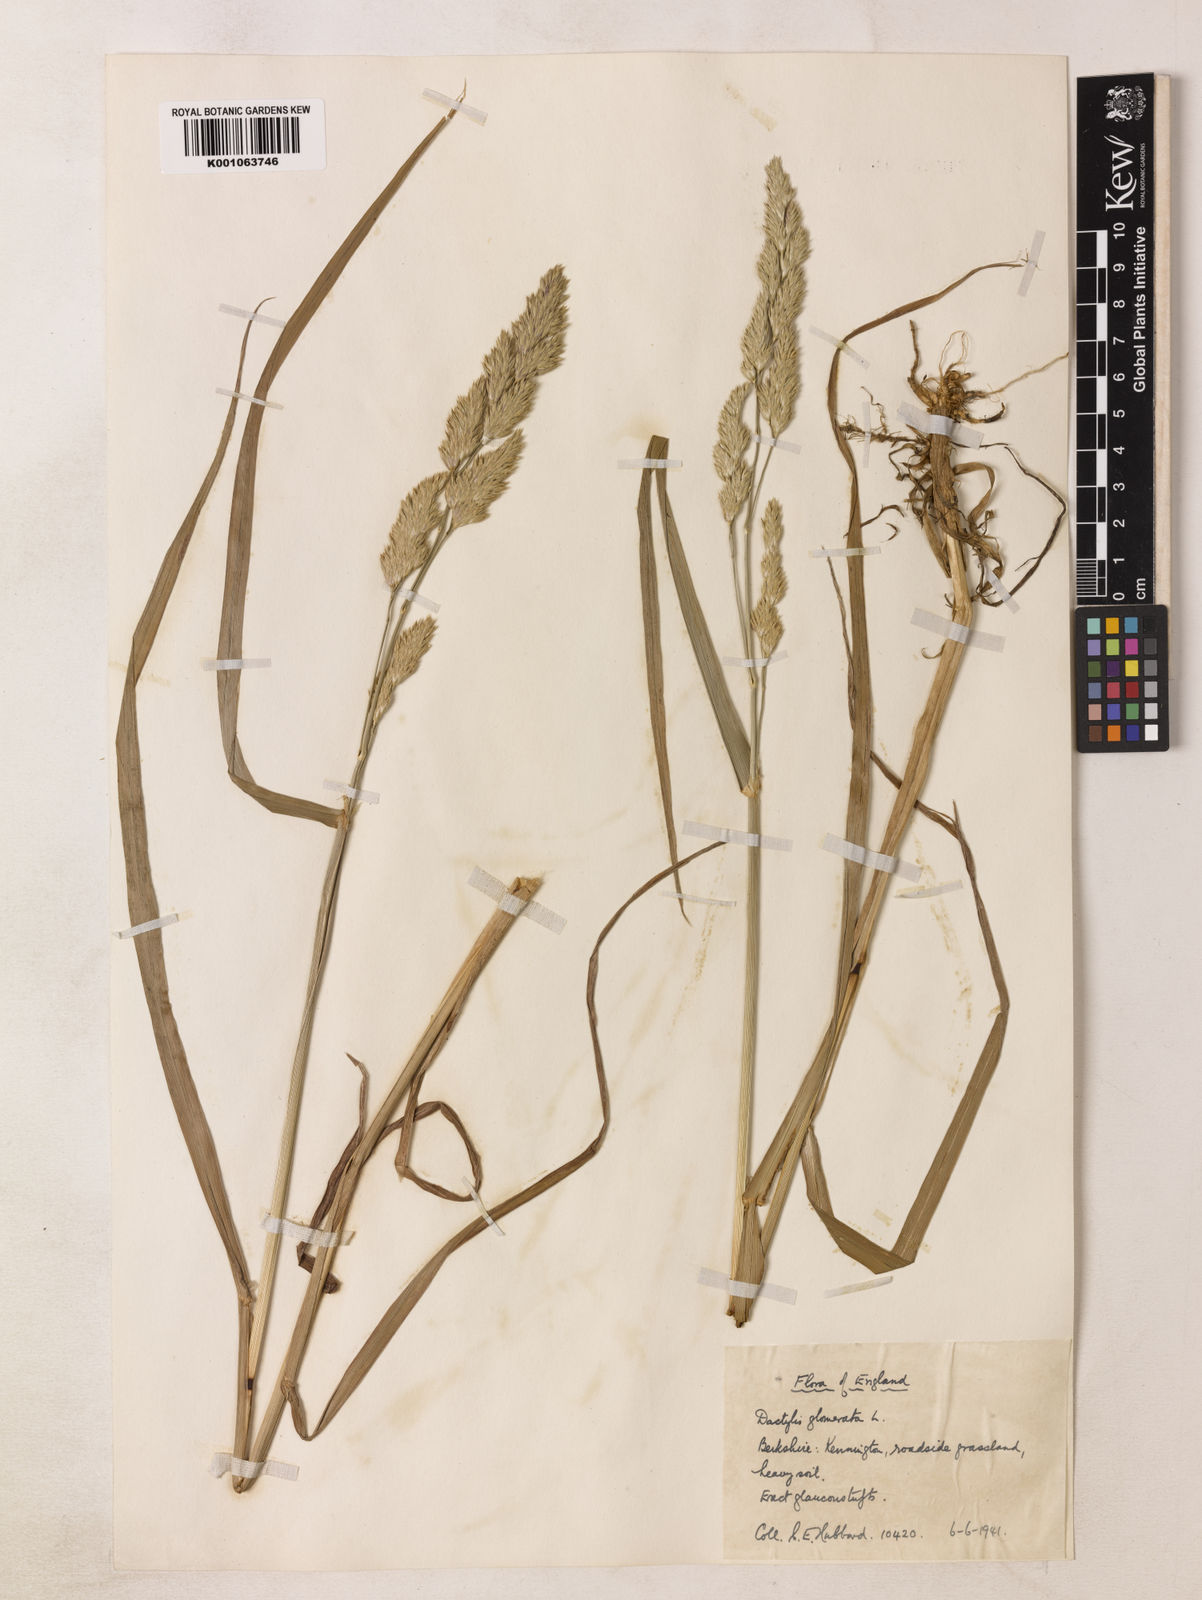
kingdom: Plantae
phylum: Tracheophyta
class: Liliopsida
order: Poales
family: Poaceae
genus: Dactylis
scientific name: Dactylis glomerata
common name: Orchardgrass
